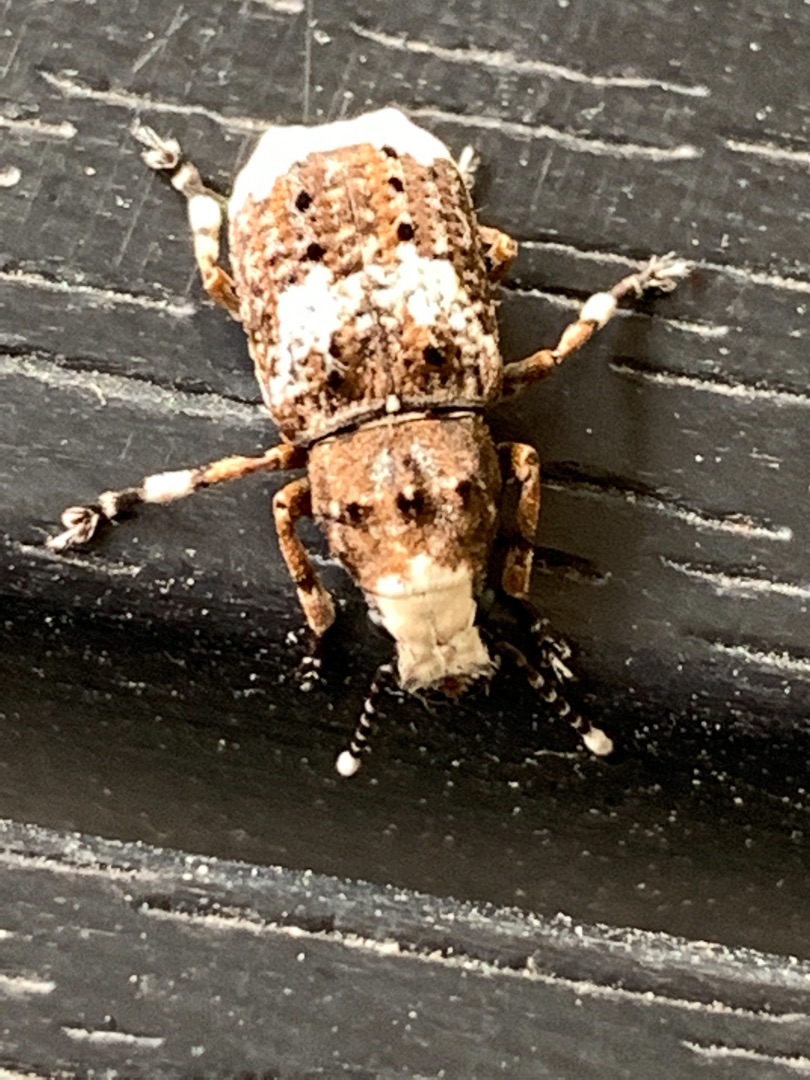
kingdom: Animalia
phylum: Arthropoda
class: Insecta
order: Coleoptera
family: Anthribidae
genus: Platystomos
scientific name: Platystomos albinus
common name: Hvidhovedet bredsnudebille
